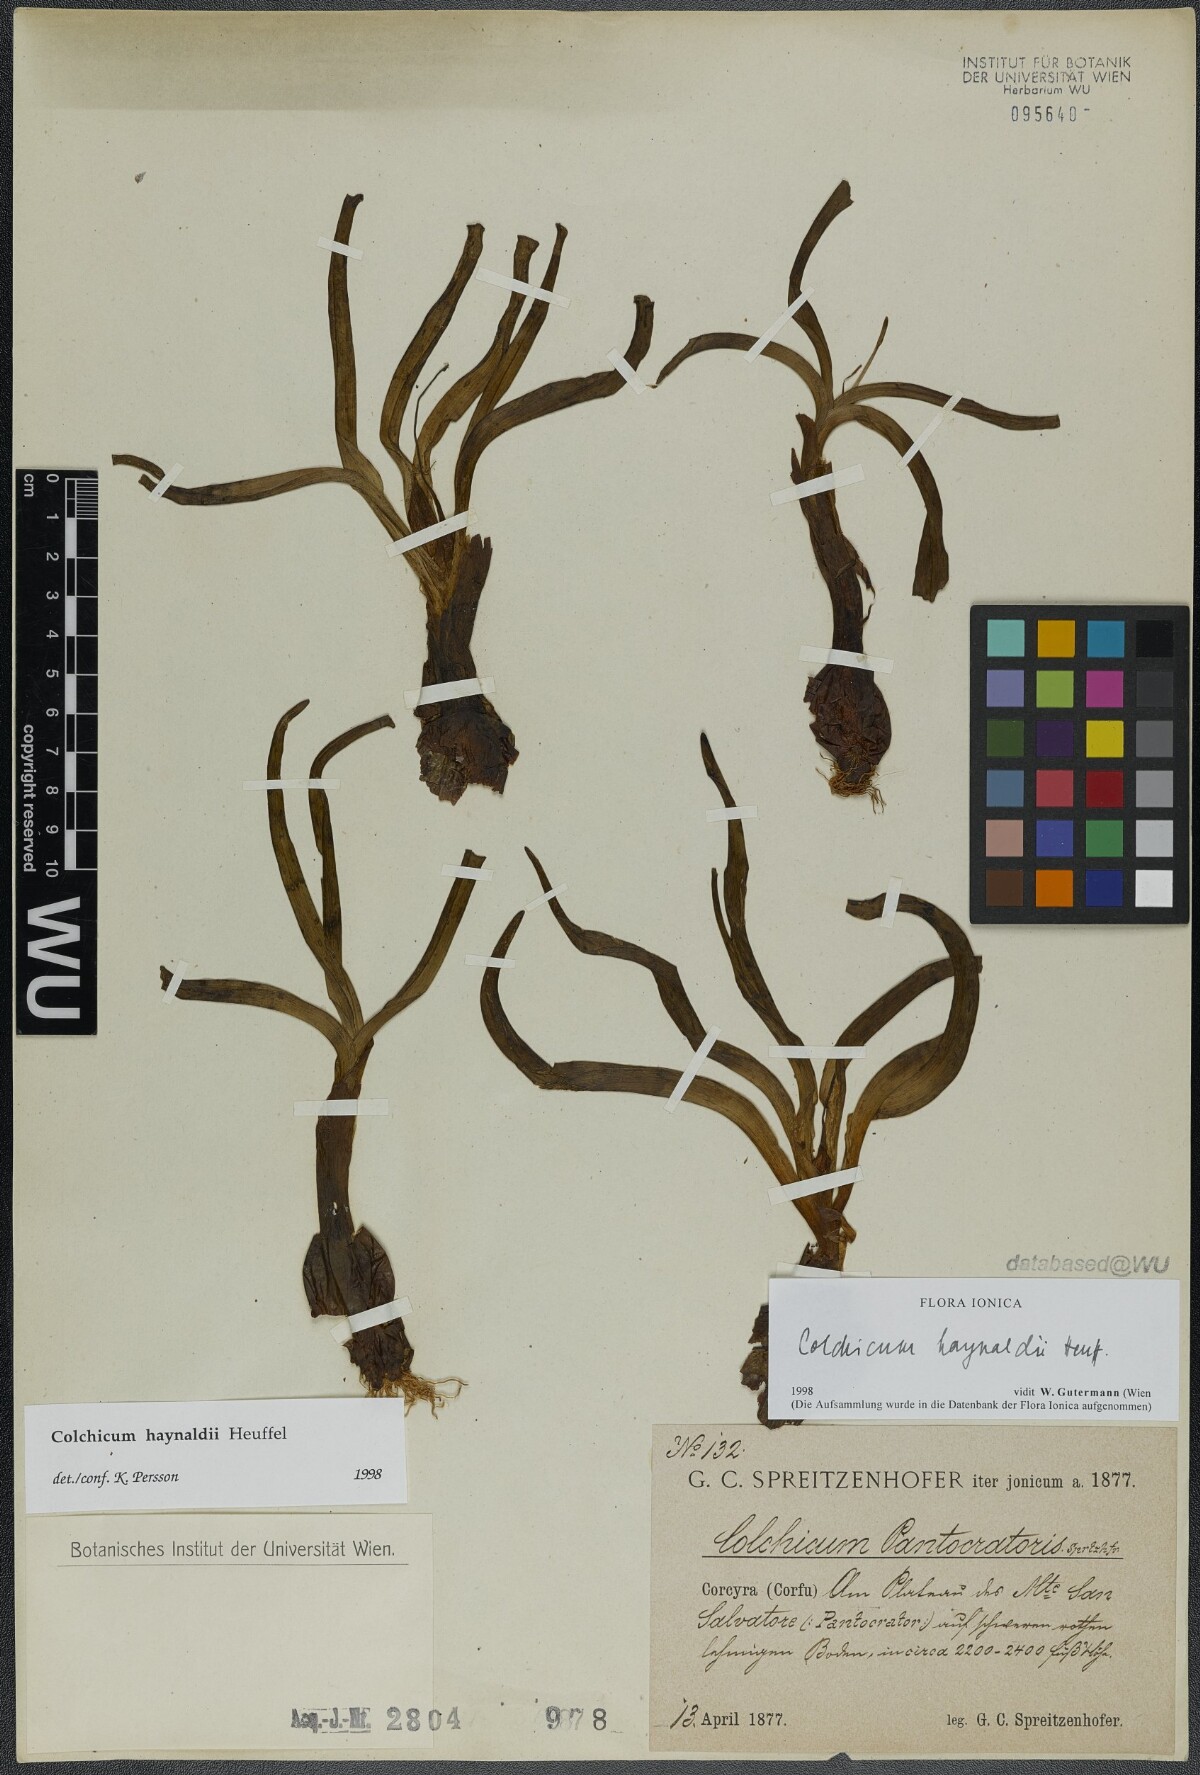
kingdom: Plantae
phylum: Tracheophyta
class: Liliopsida
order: Liliales
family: Colchicaceae
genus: Colchicum
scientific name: Colchicum haynaldii
